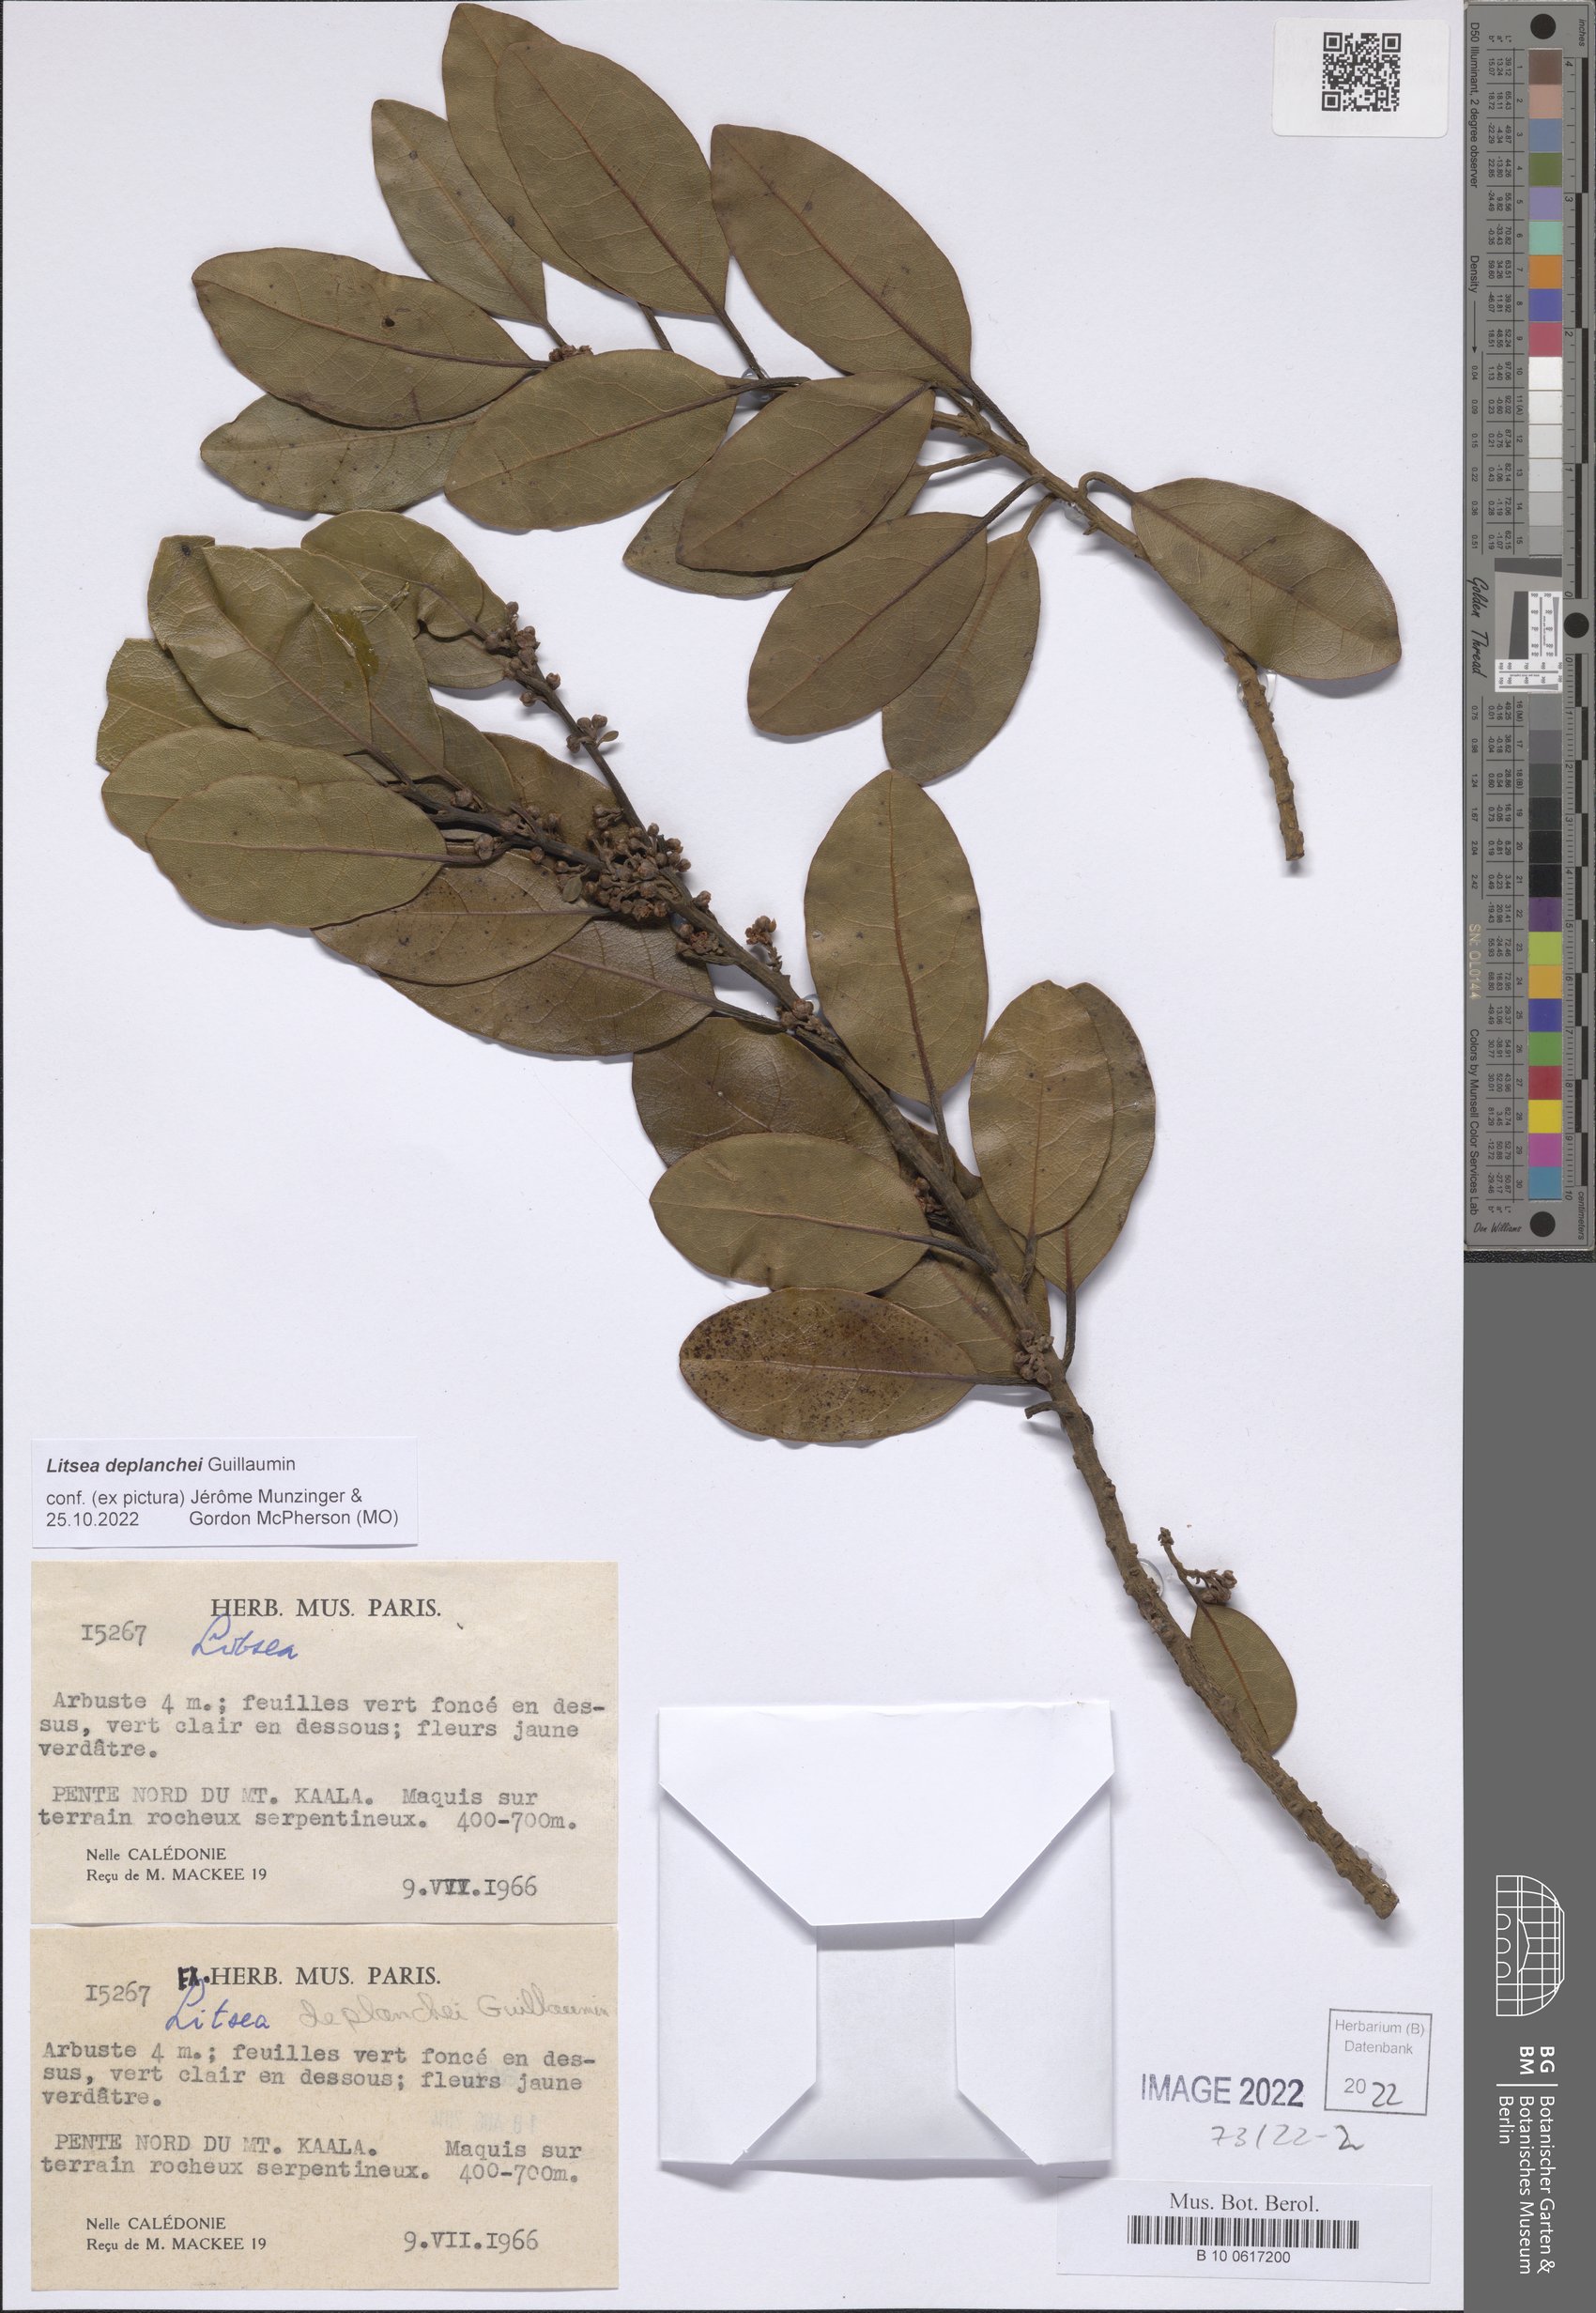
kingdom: Plantae
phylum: Tracheophyta
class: Magnoliopsida
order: Laurales
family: Lauraceae
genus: Litsea
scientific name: Litsea deplanchei
